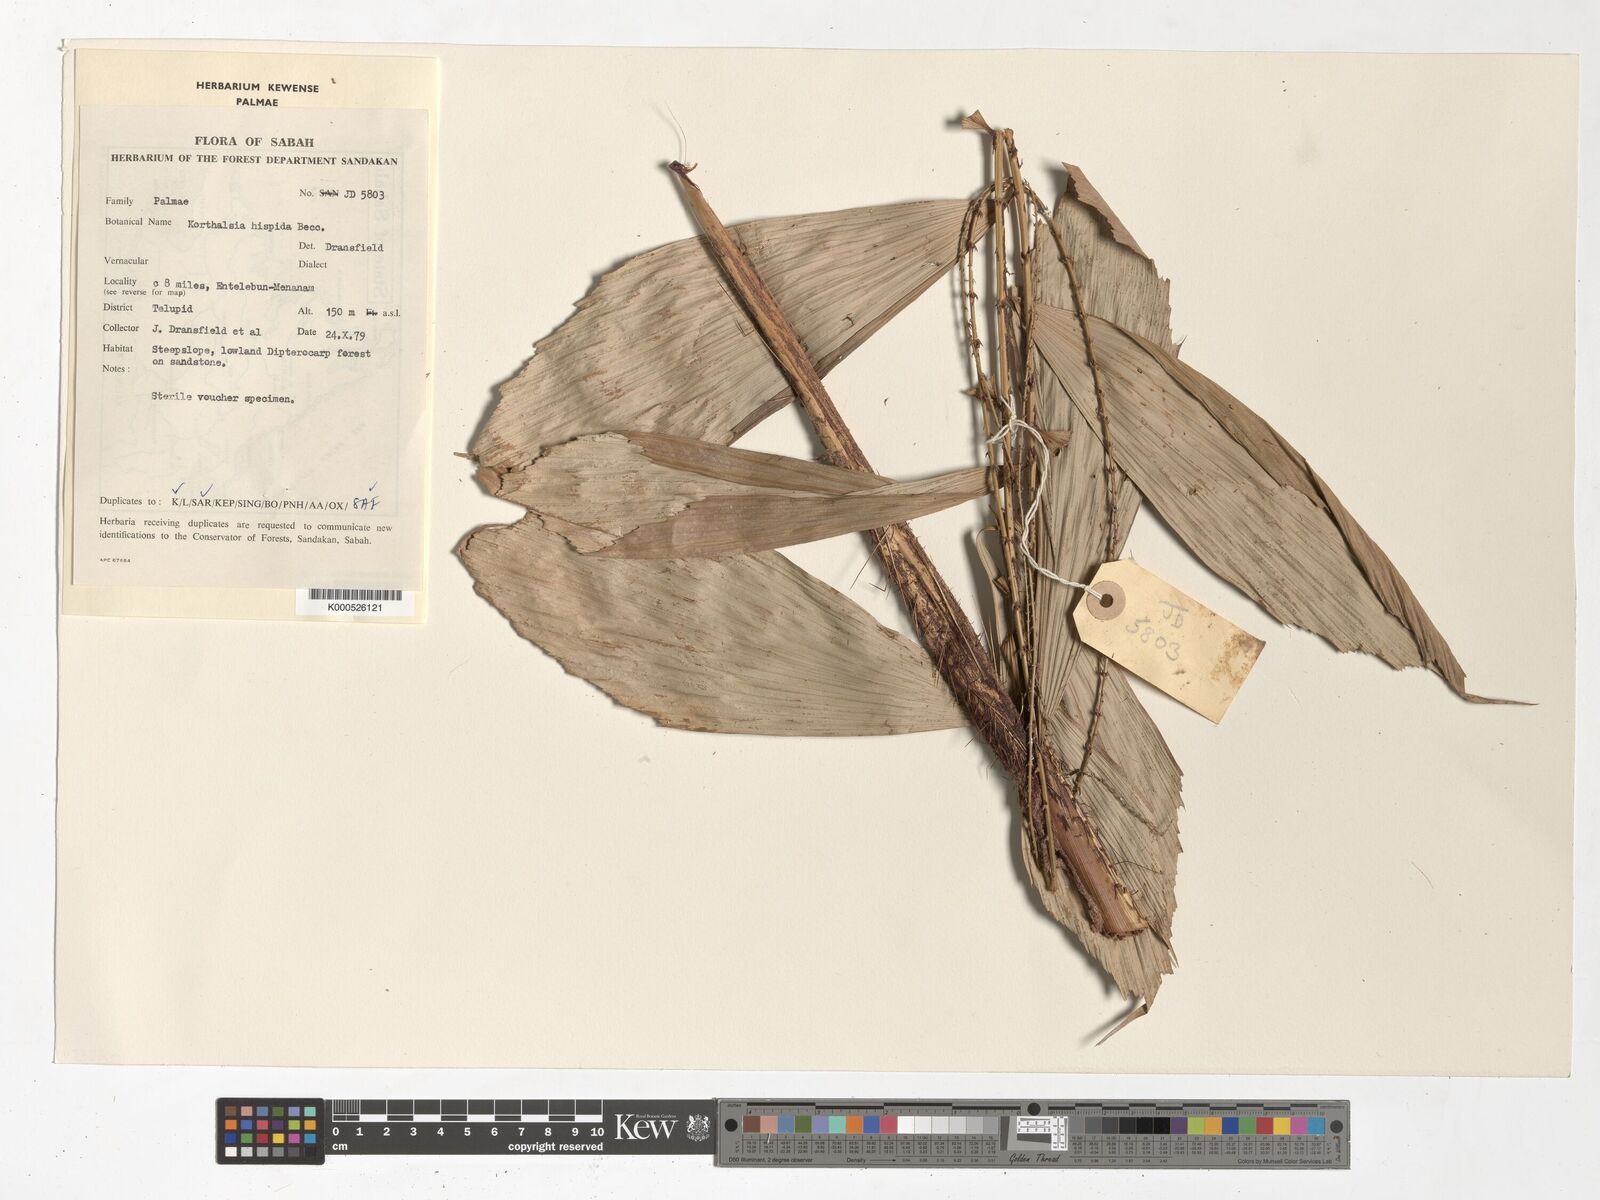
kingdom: Plantae
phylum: Tracheophyta
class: Liliopsida
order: Arecales
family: Arecaceae
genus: Korthalsia
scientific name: Korthalsia hispida
